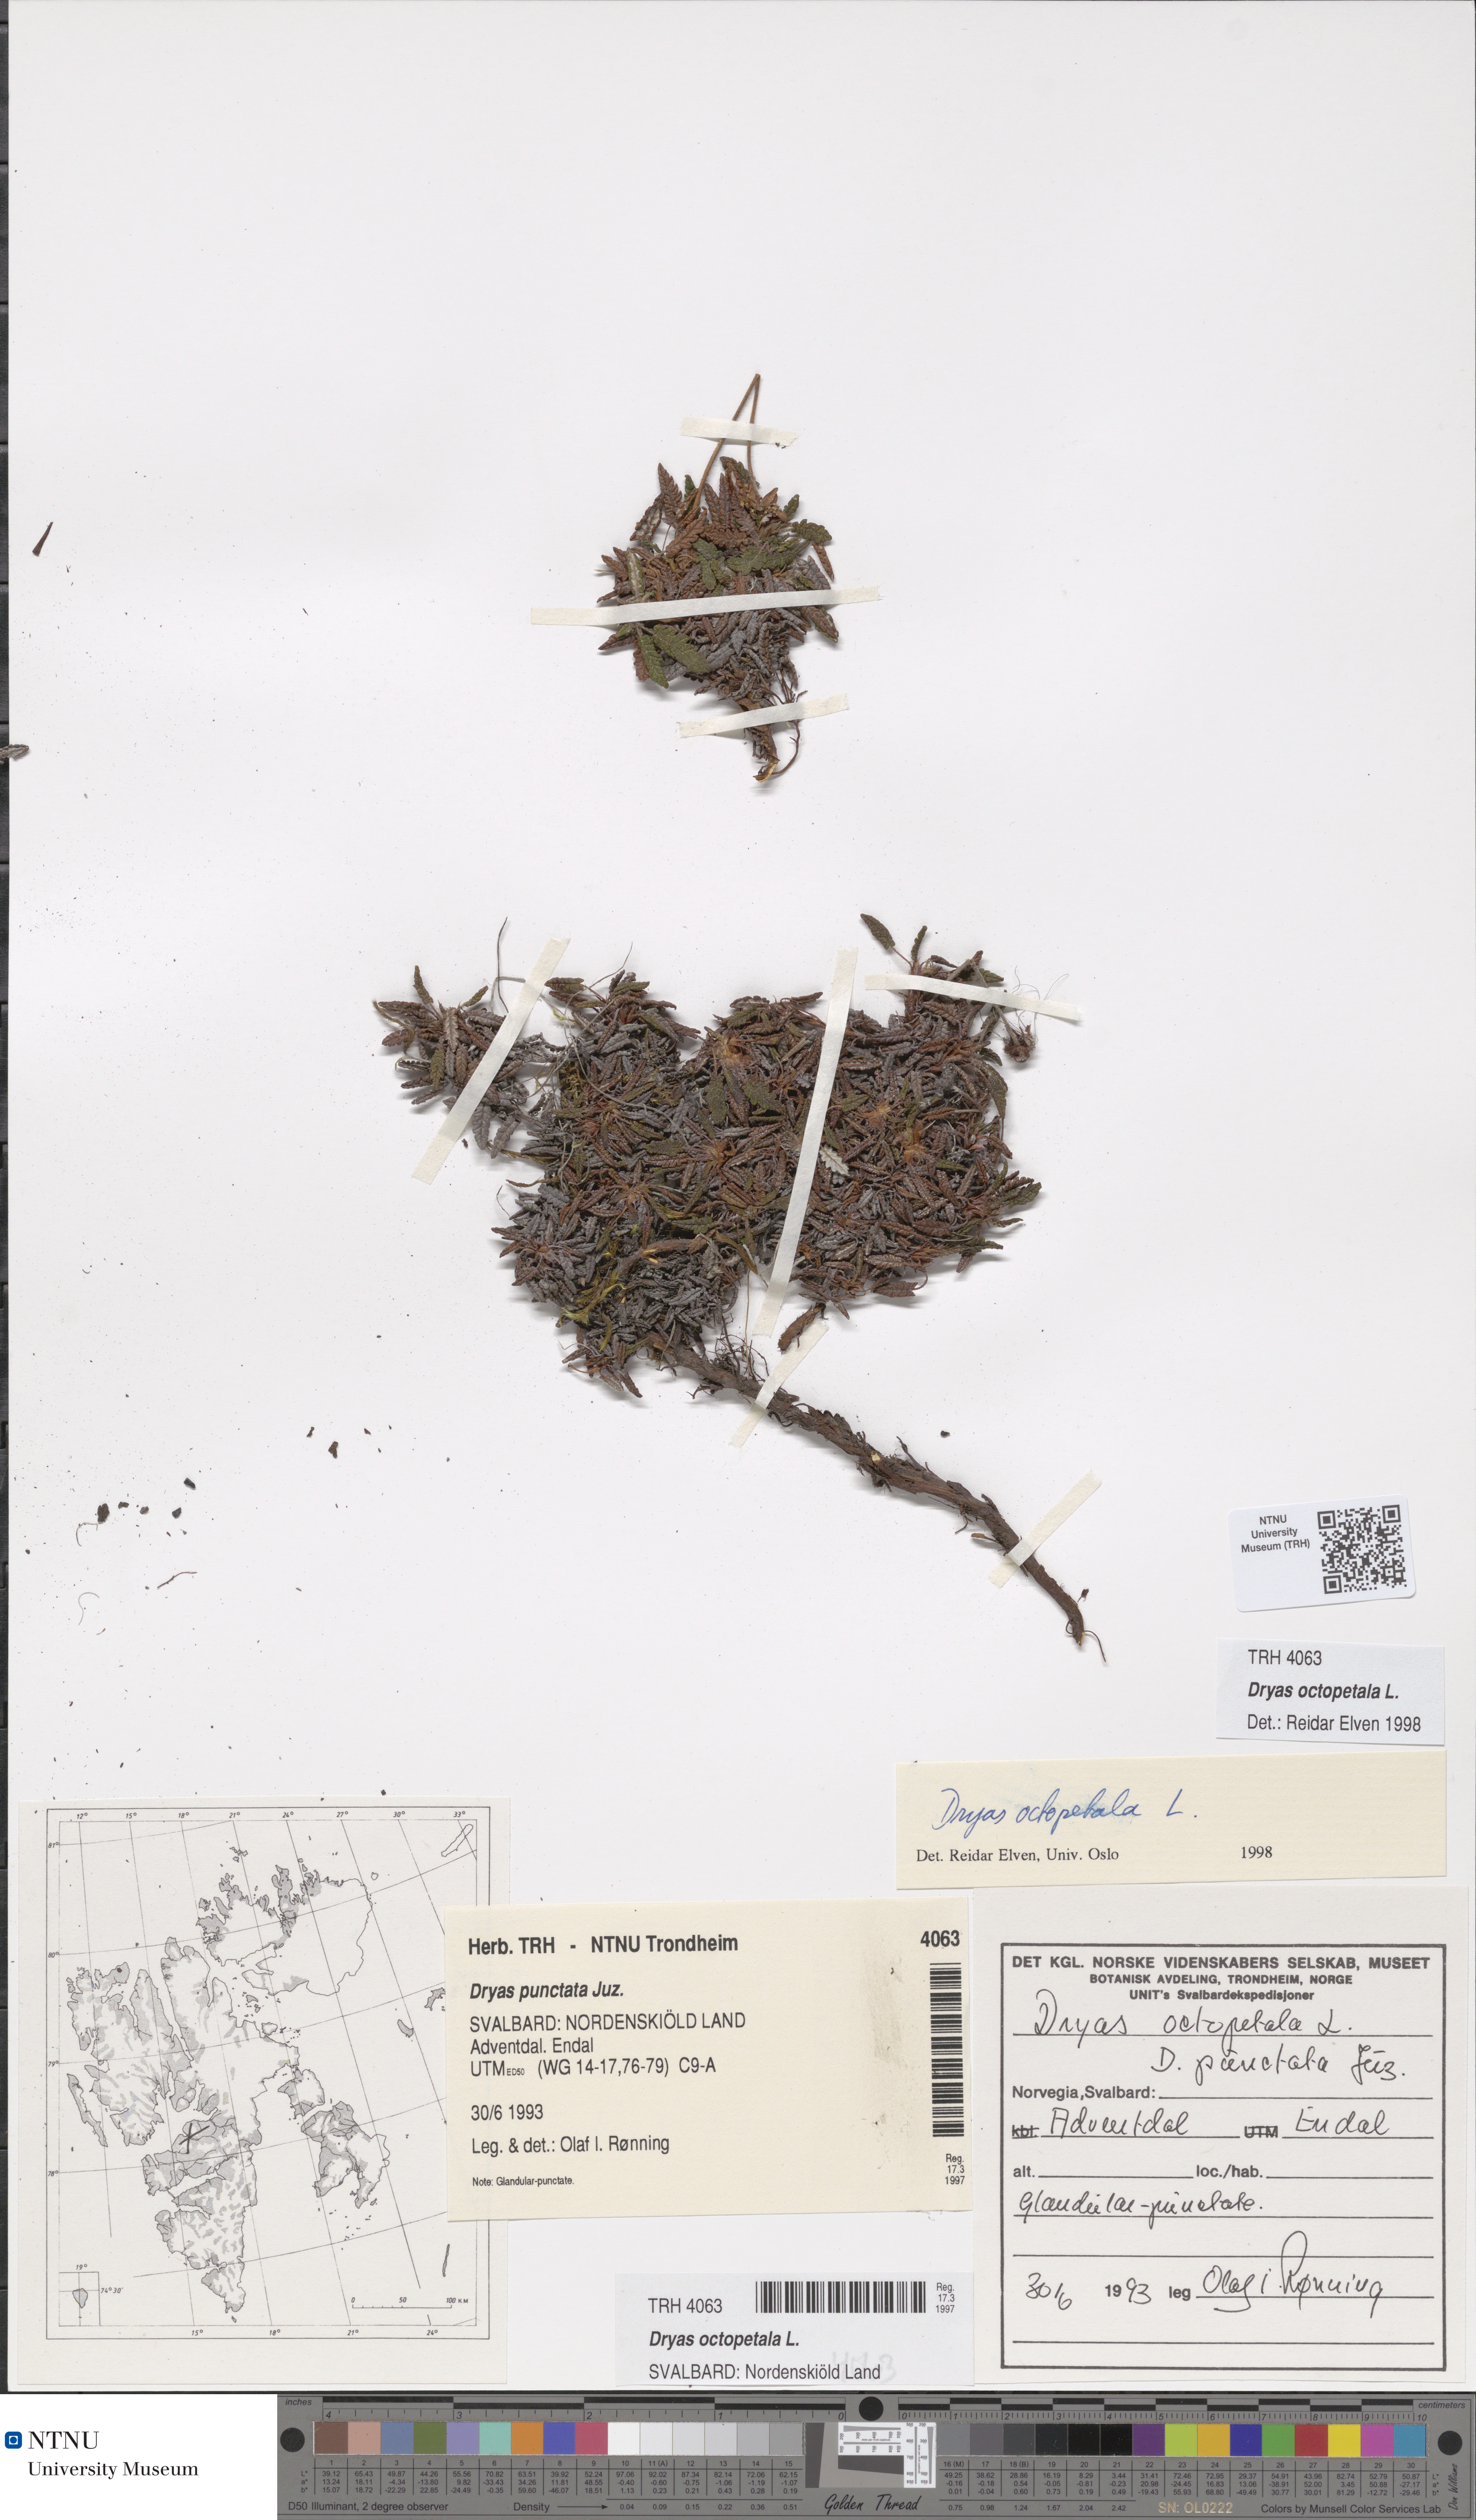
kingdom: Plantae
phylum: Tracheophyta
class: Magnoliopsida
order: Rosales
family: Rosaceae
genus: Dryas
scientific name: Dryas octopetala
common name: Eight-petal mountain-avens
